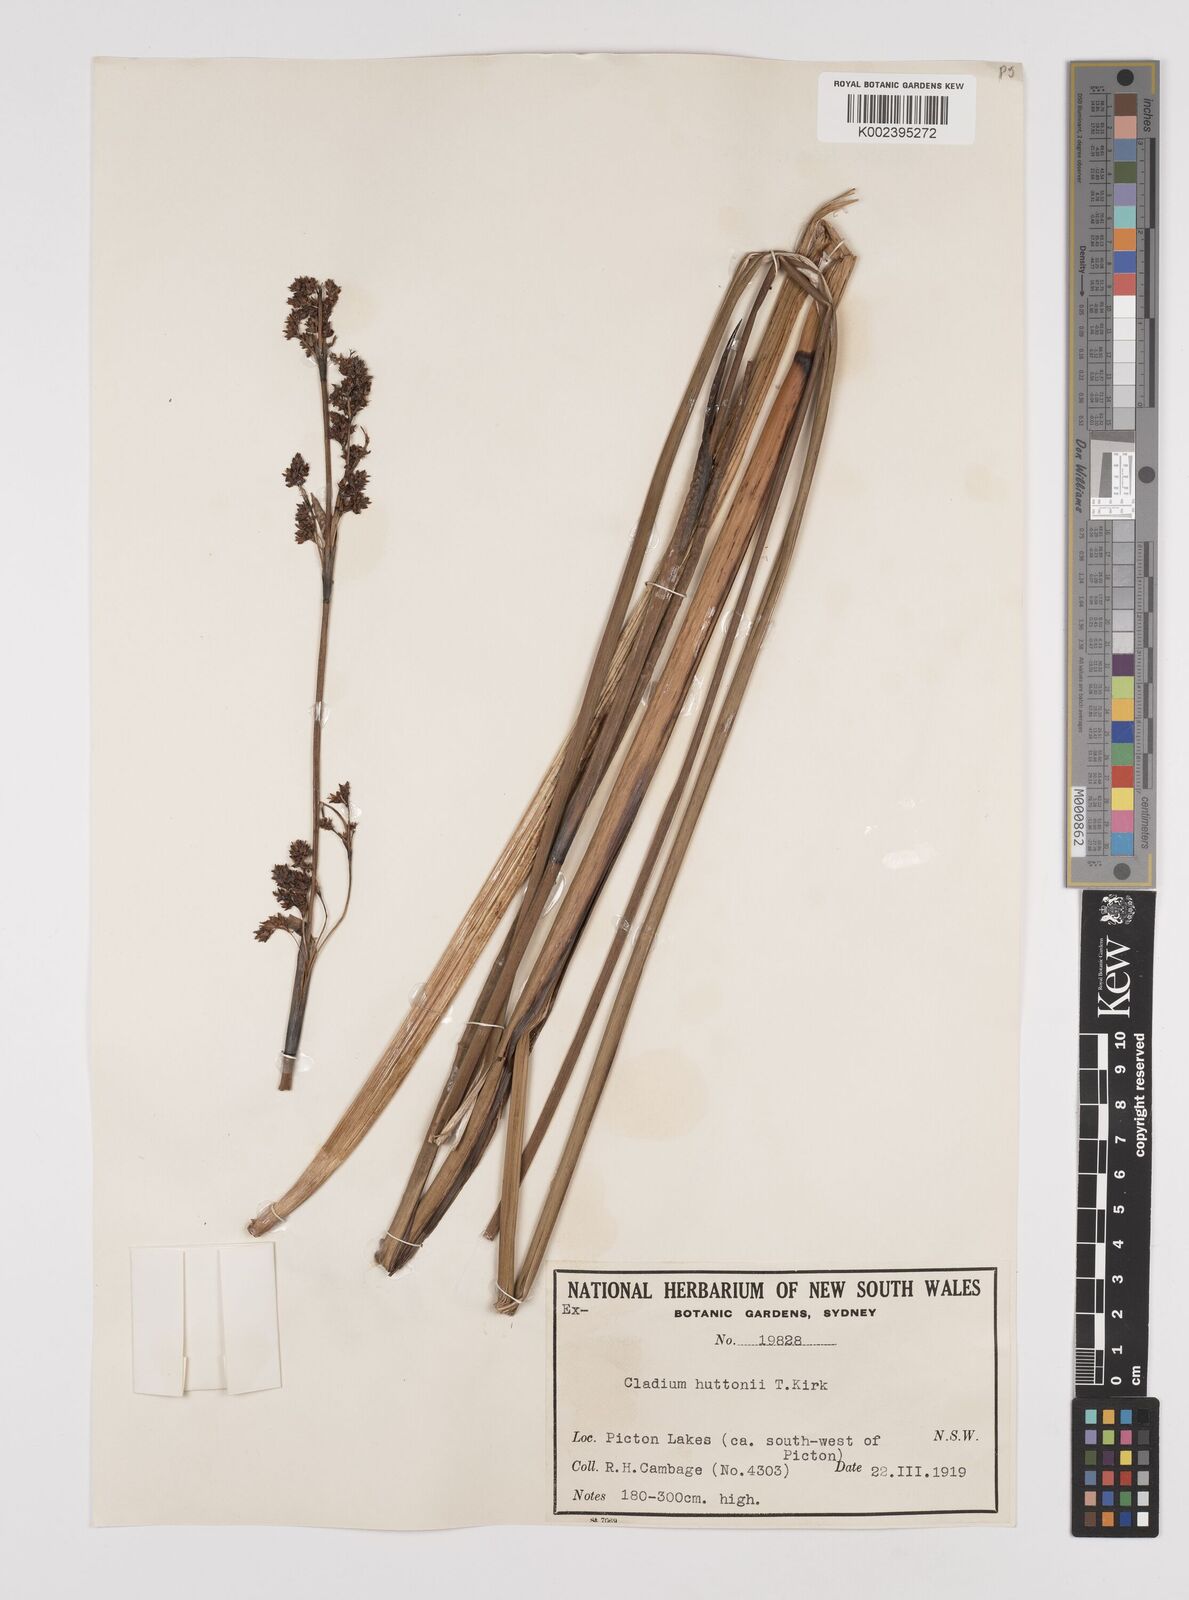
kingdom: Plantae
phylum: Tracheophyta
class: Liliopsida
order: Poales
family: Cyperaceae
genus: Machaerina
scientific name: Machaerina huttonii
